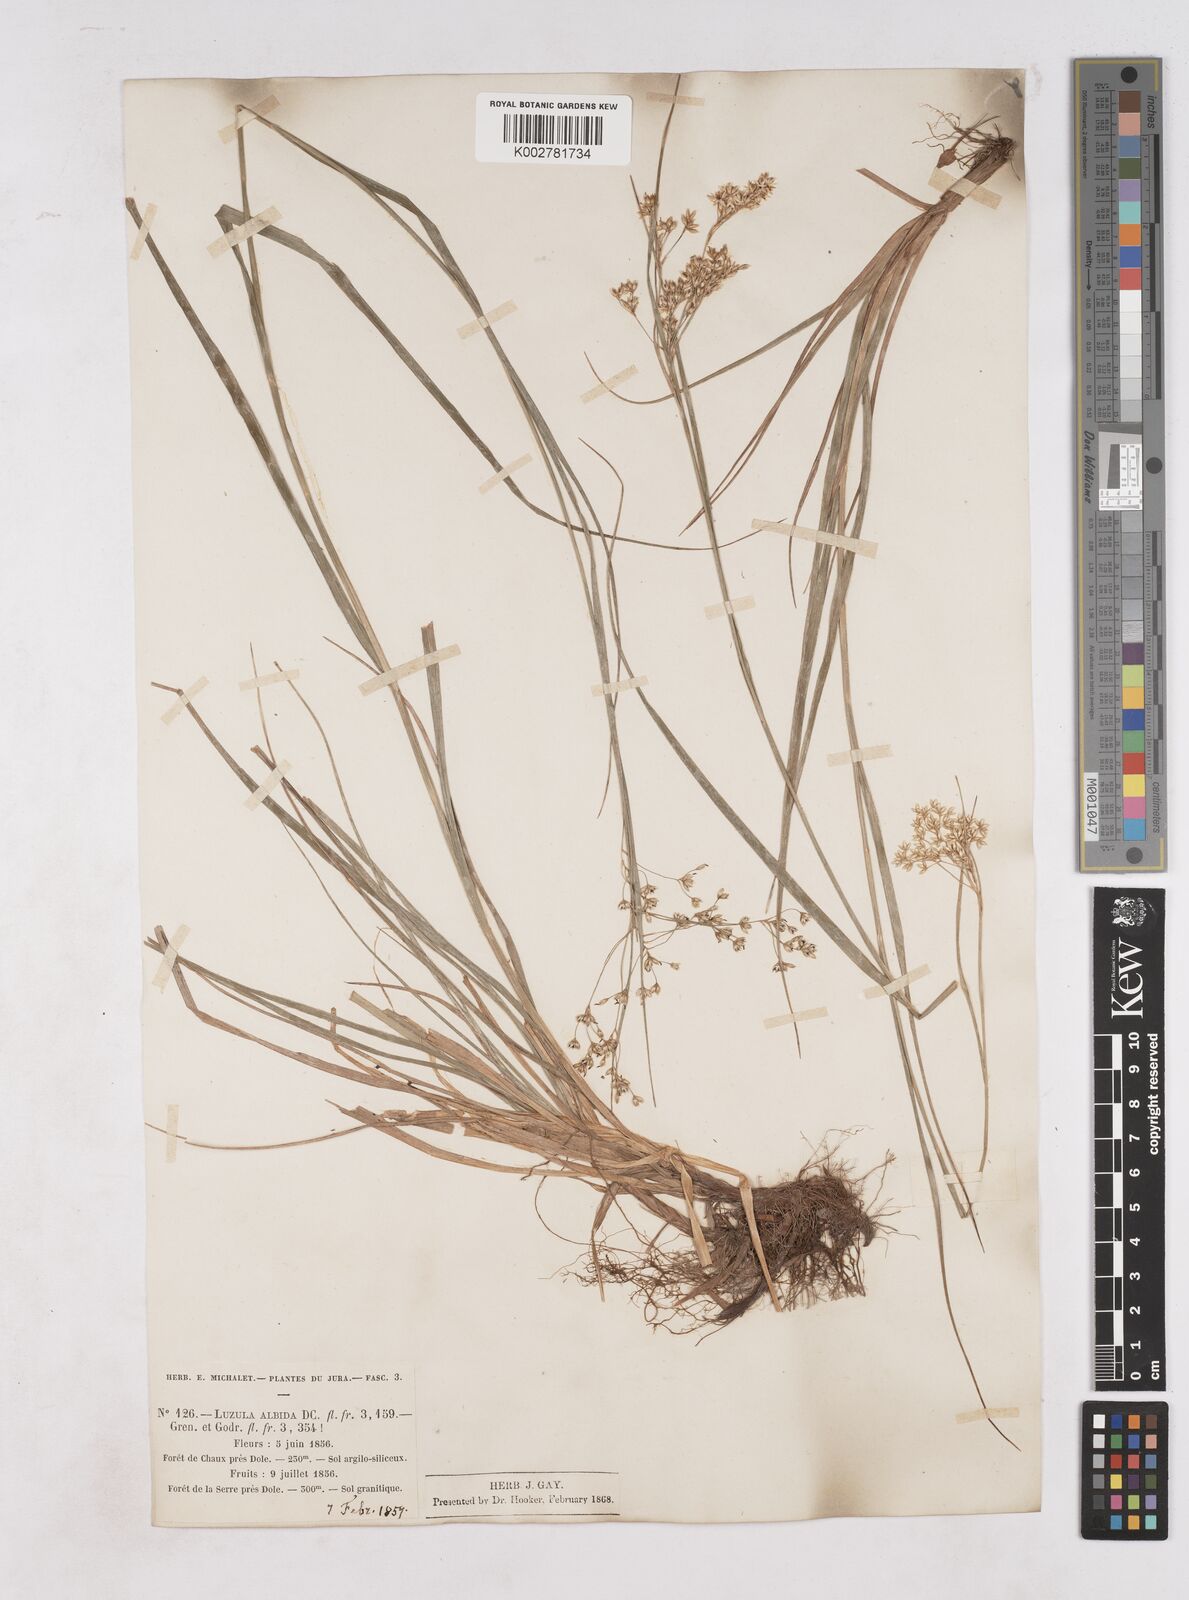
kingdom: Plantae
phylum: Tracheophyta
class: Liliopsida
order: Poales
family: Juncaceae
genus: Luzula
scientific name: Luzula luzuloides
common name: White wood-rush
